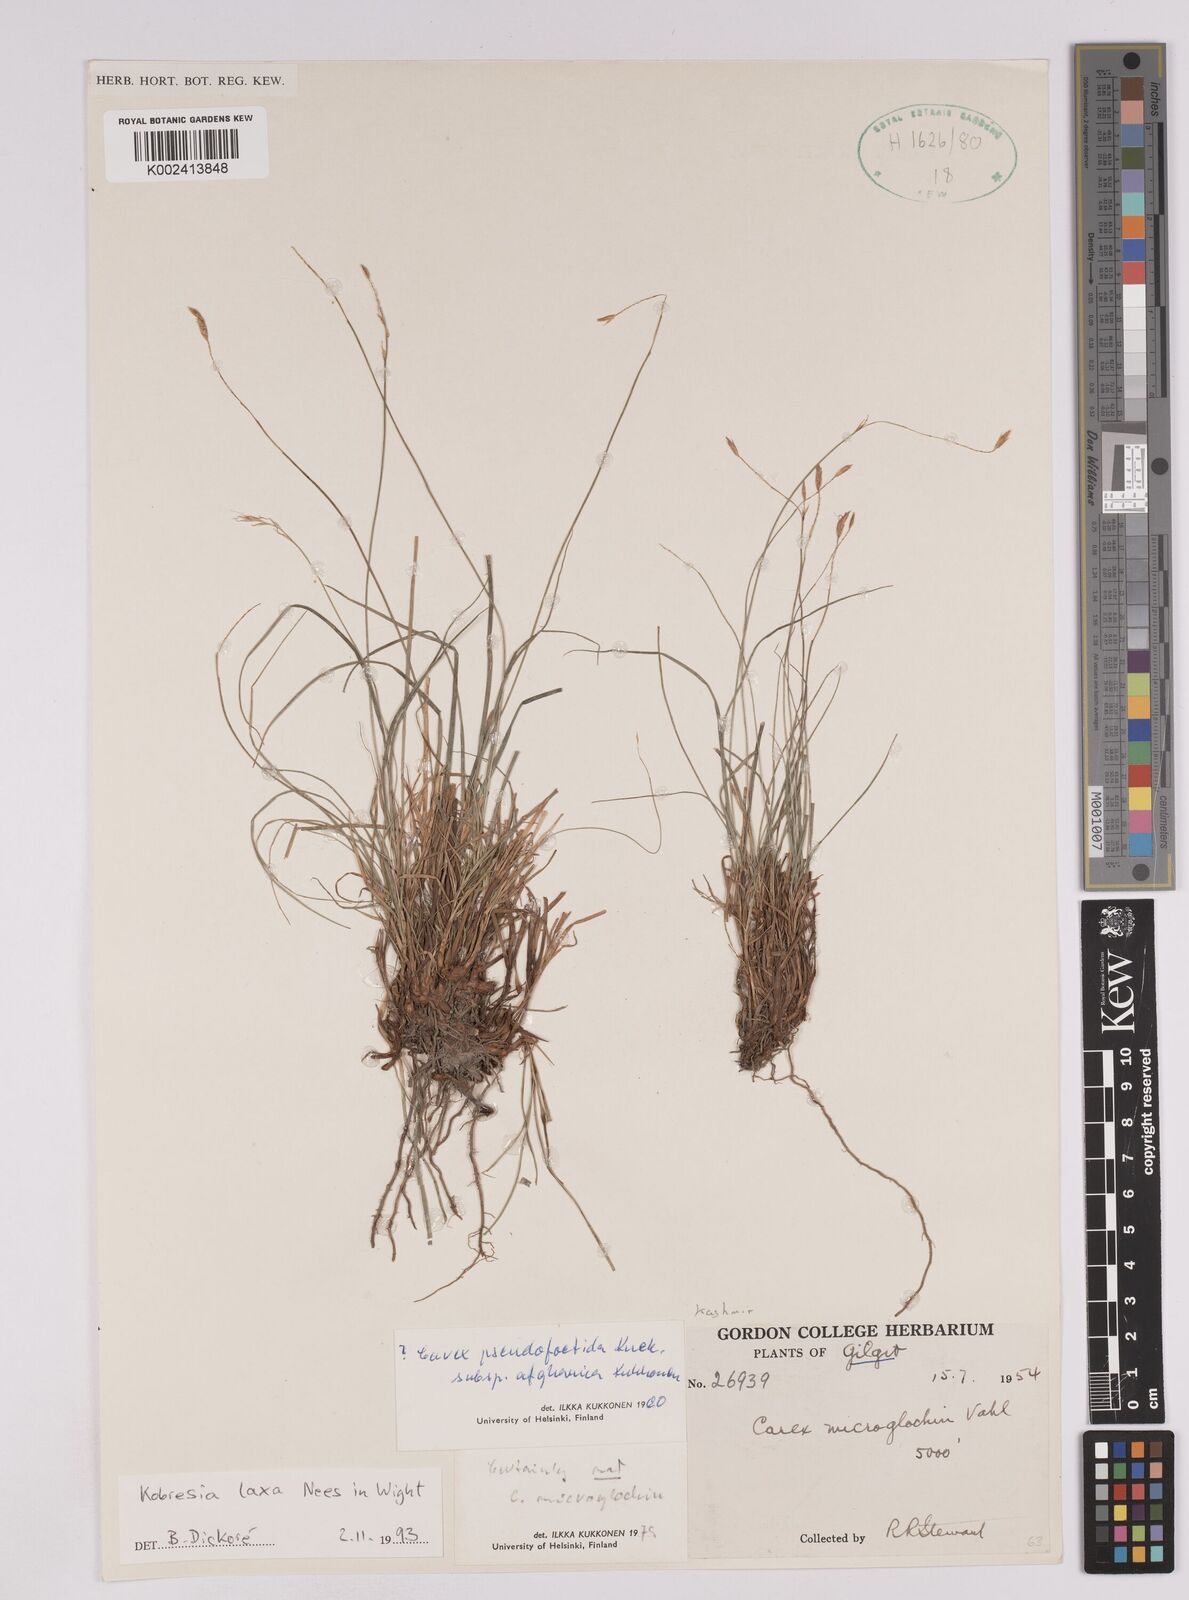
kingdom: Plantae
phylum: Tracheophyta
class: Liliopsida
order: Poales
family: Cyperaceae
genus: Carex
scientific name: Carex pseudolaxa
